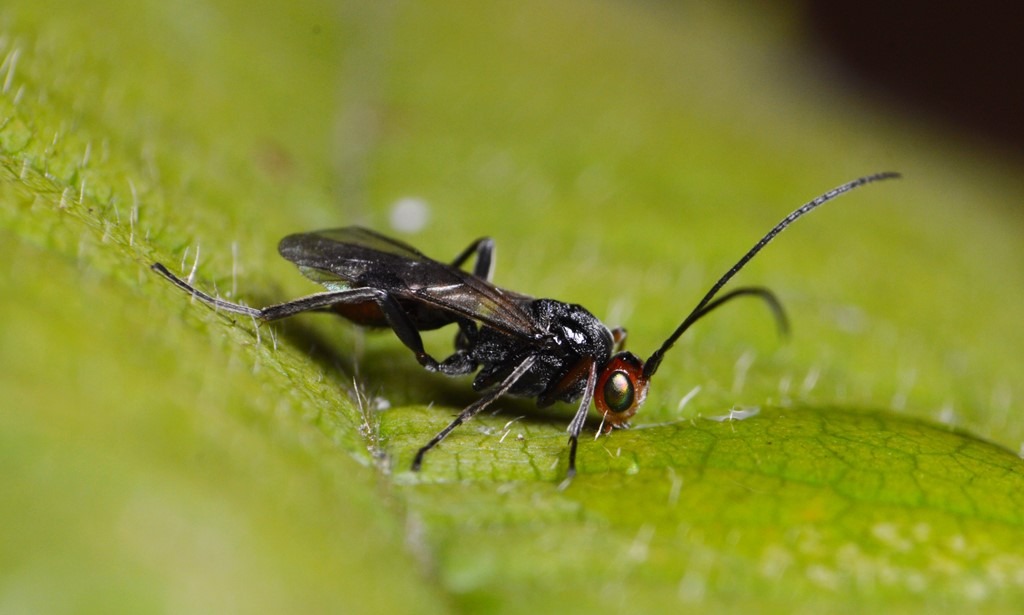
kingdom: Animalia
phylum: Arthropoda
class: Insecta
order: Hymenoptera
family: Braconidae
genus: Dinocampus
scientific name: Dinocampus coccinellae
